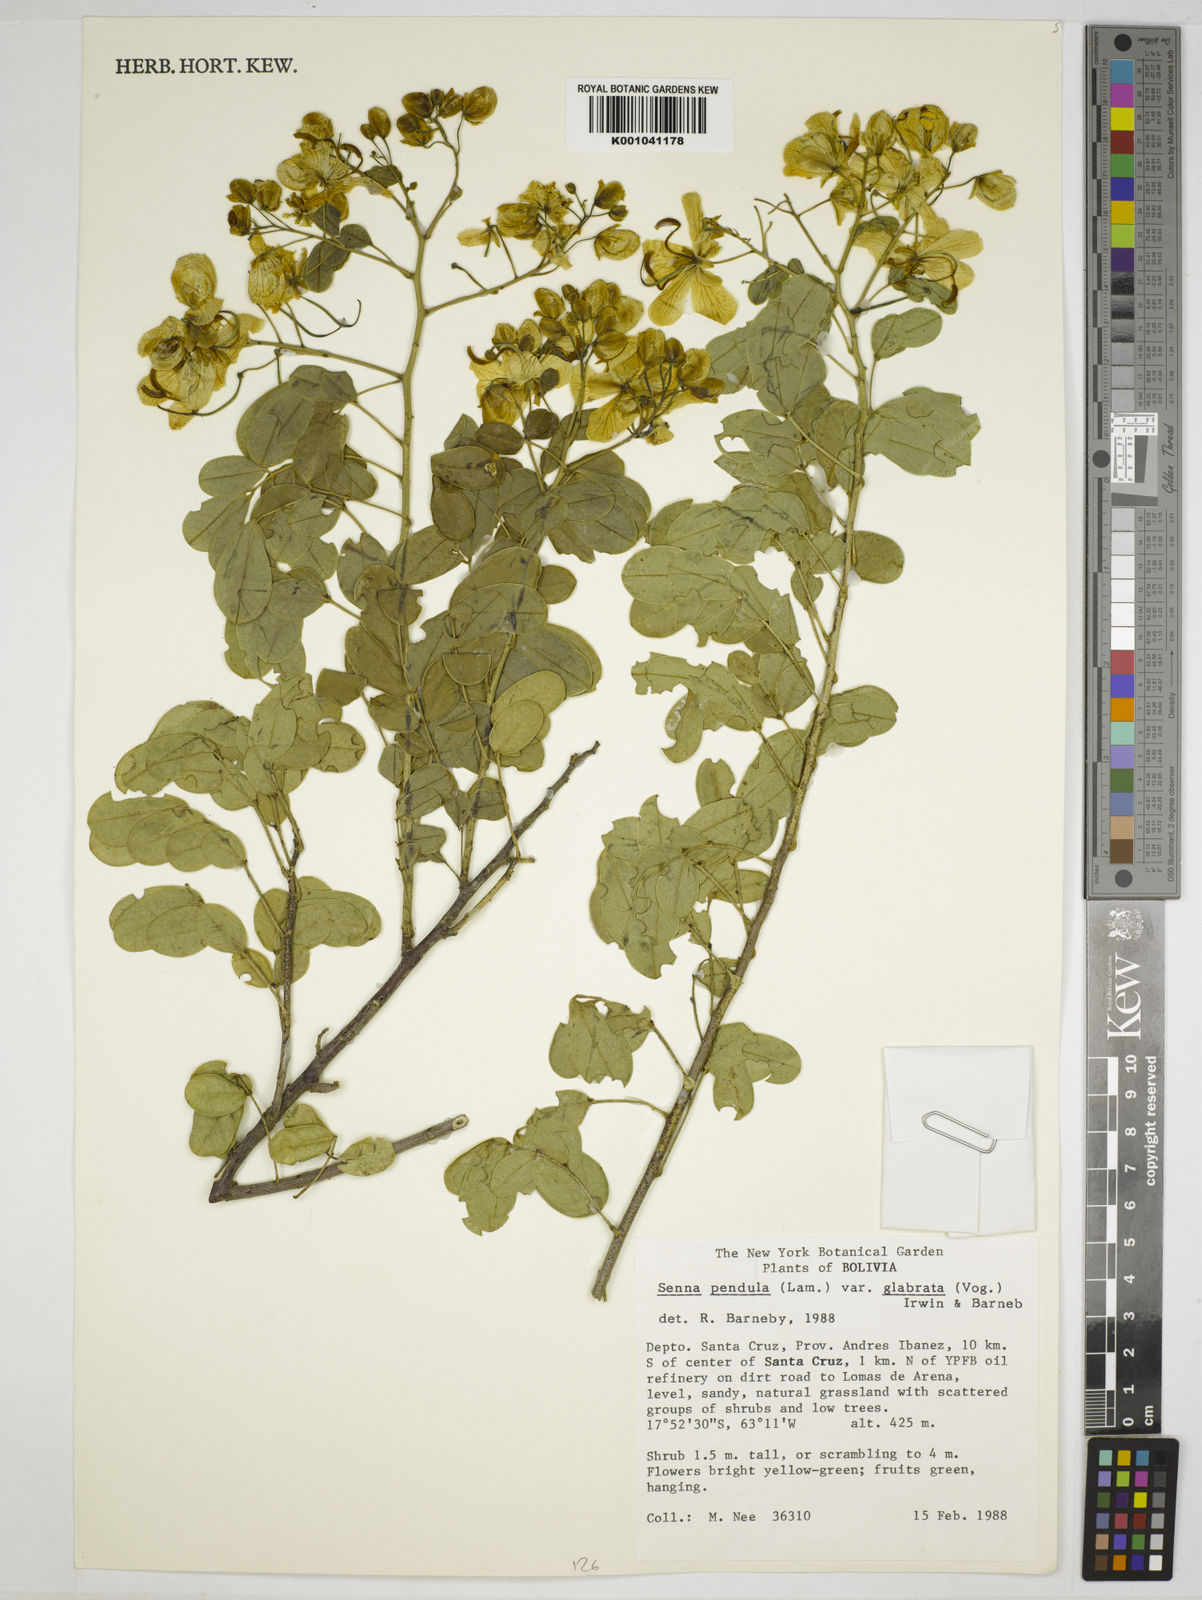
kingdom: Plantae
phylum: Tracheophyta
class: Magnoliopsida
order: Fabales
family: Fabaceae
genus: Senna
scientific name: Senna pendula
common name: Easter cassia
